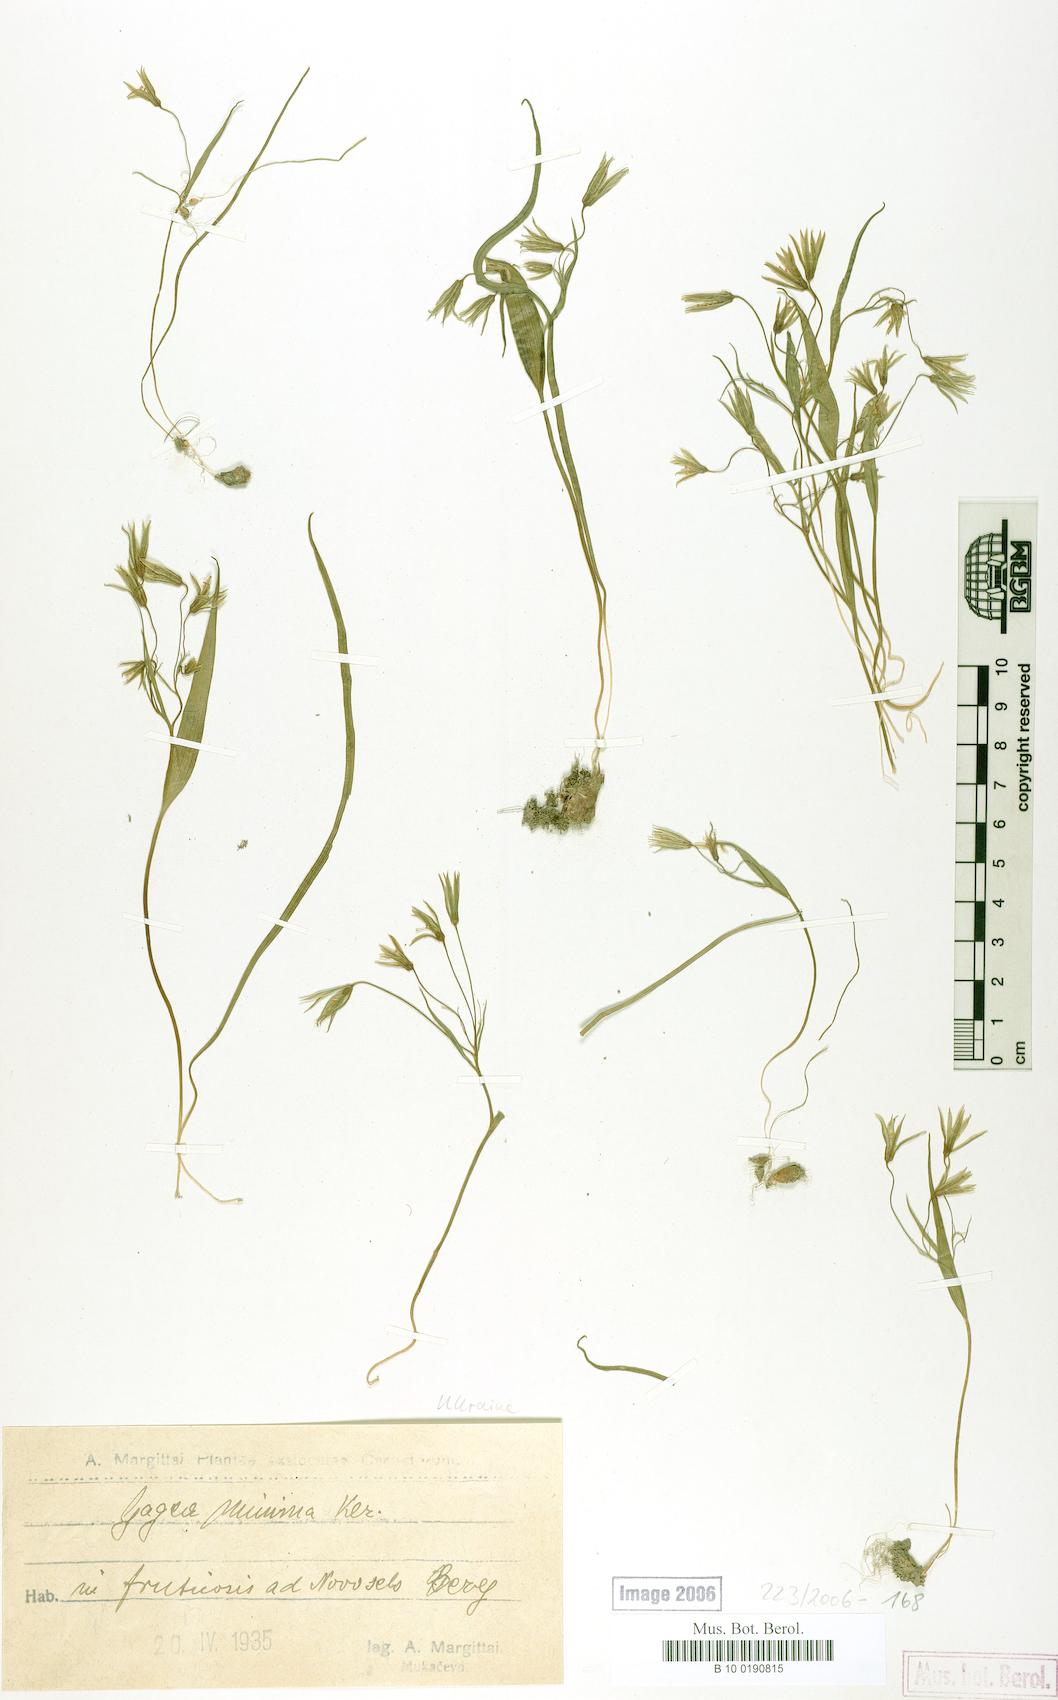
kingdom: Plantae
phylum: Tracheophyta
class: Liliopsida
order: Liliales
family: Liliaceae
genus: Gagea
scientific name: Gagea minima
